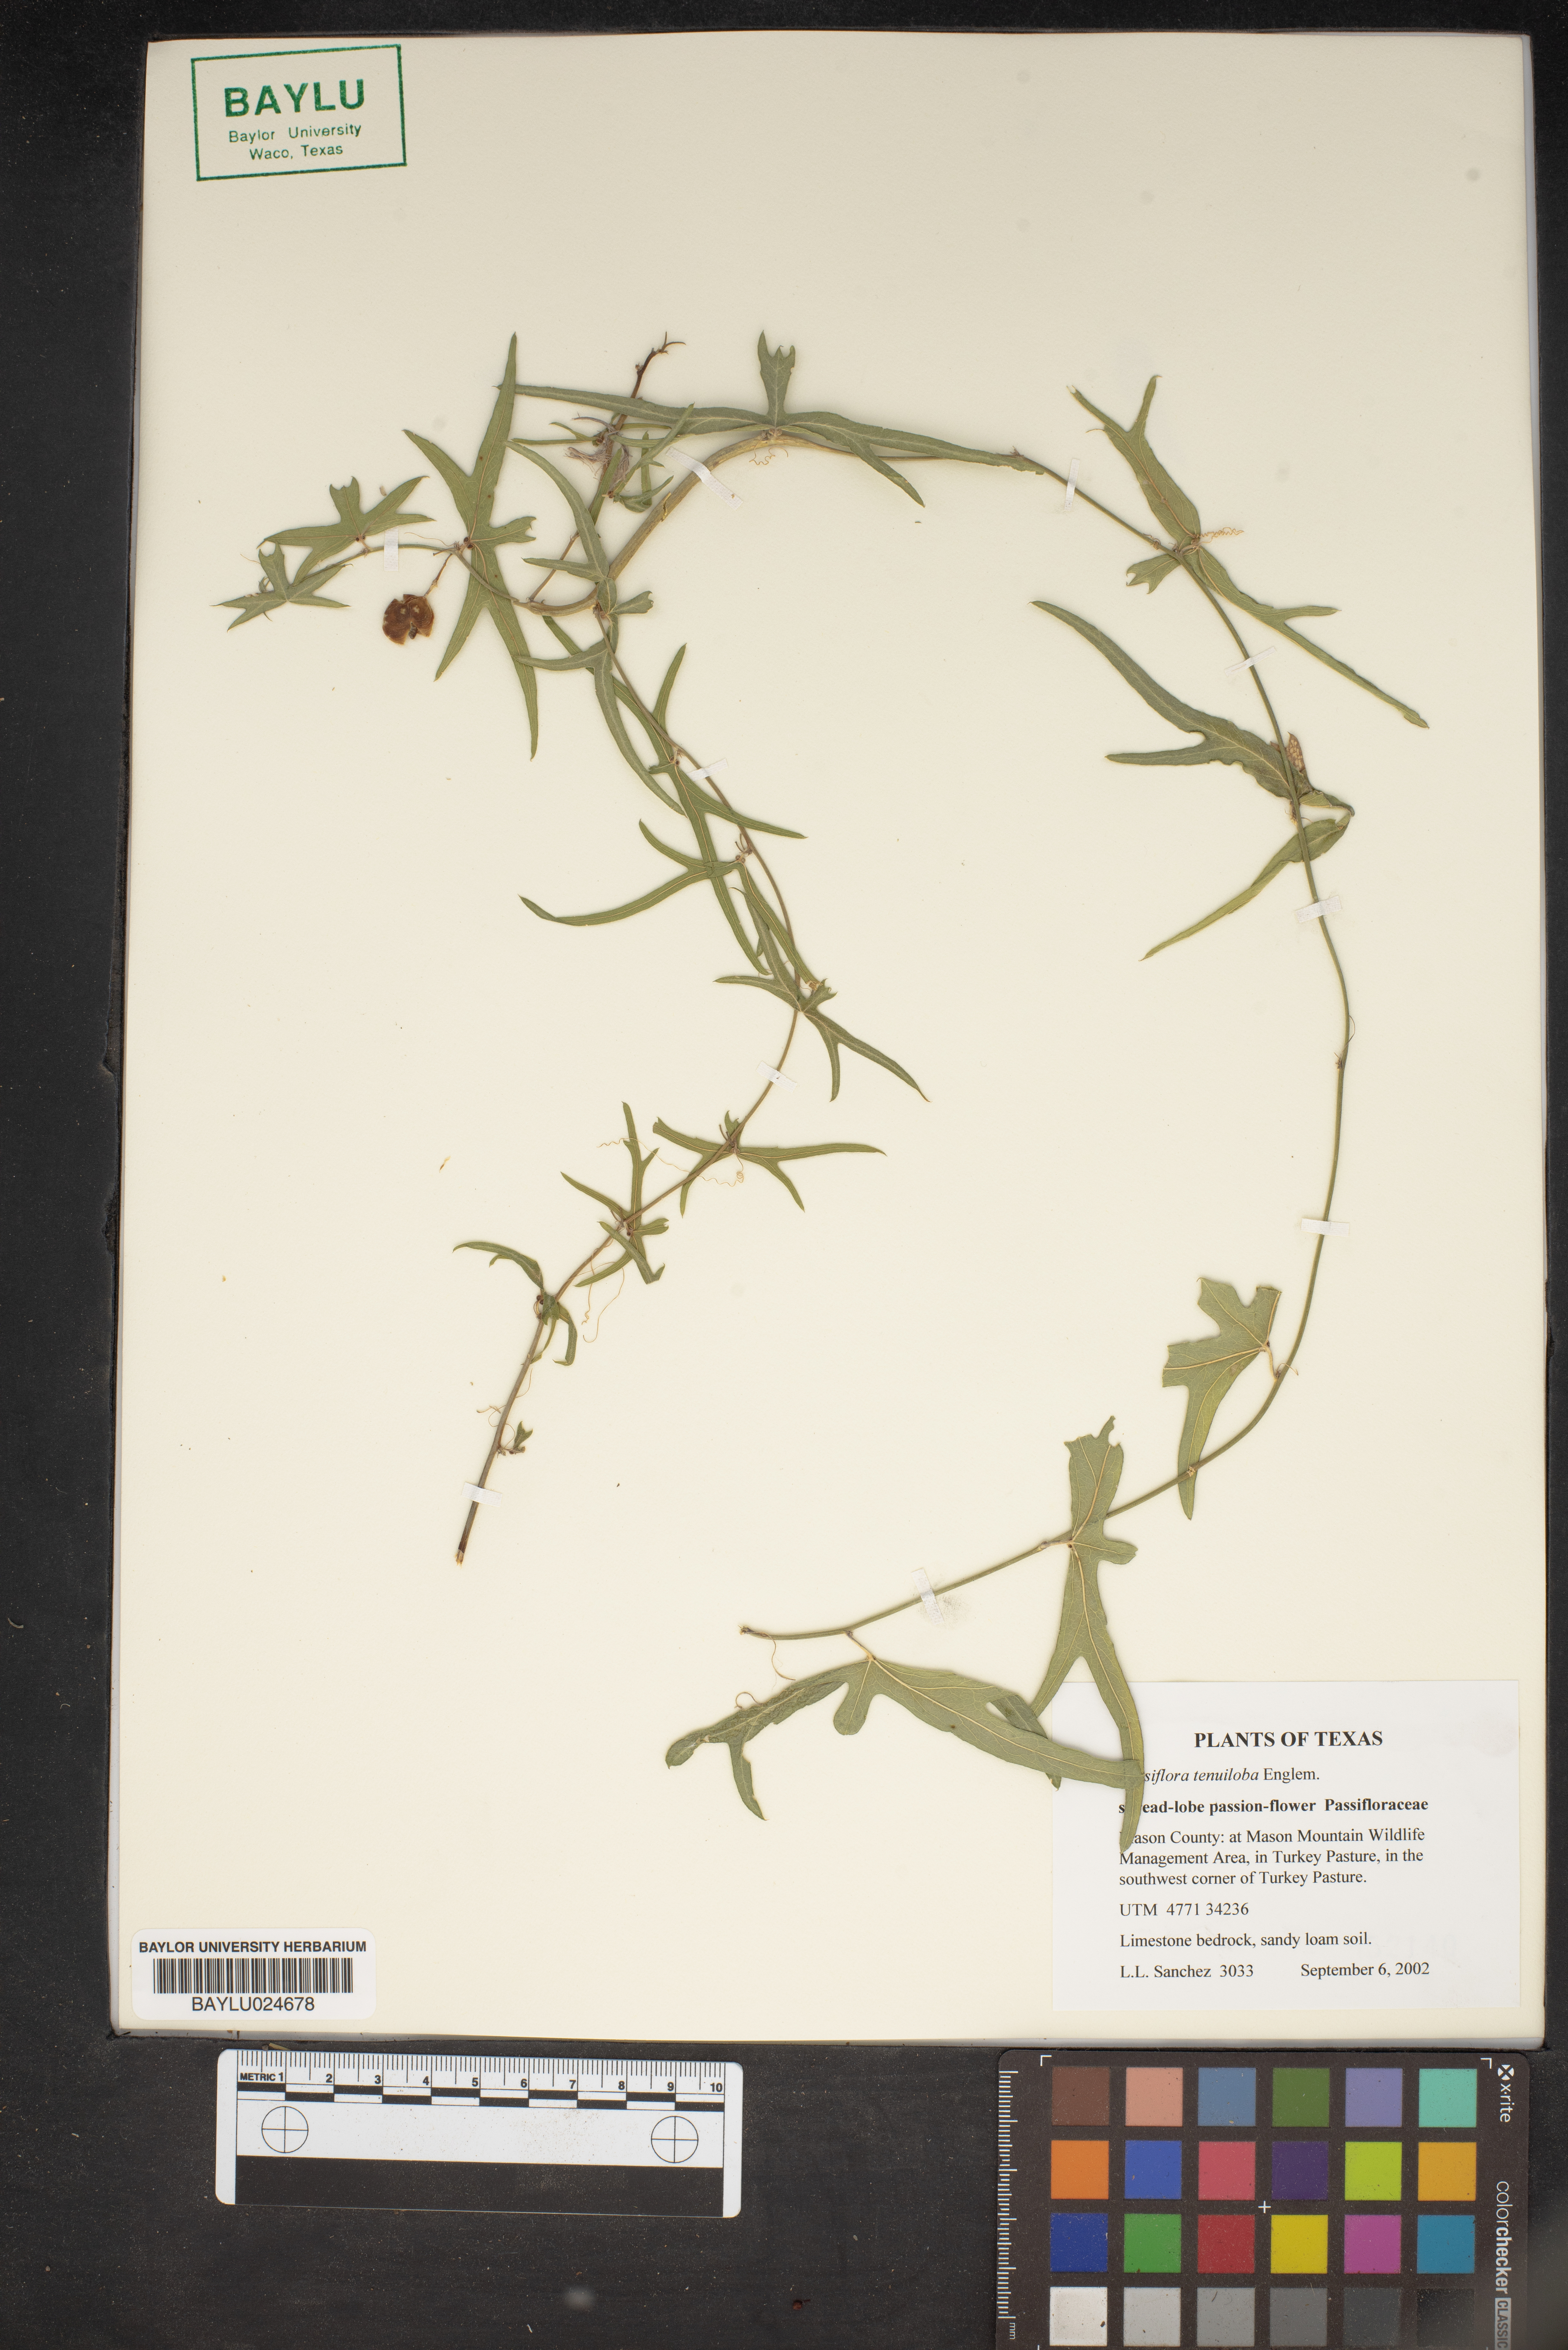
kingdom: Plantae
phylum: Tracheophyta
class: Magnoliopsida
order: Malpighiales
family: Passifloraceae
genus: Passiflora
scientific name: Passiflora tenuiloba
